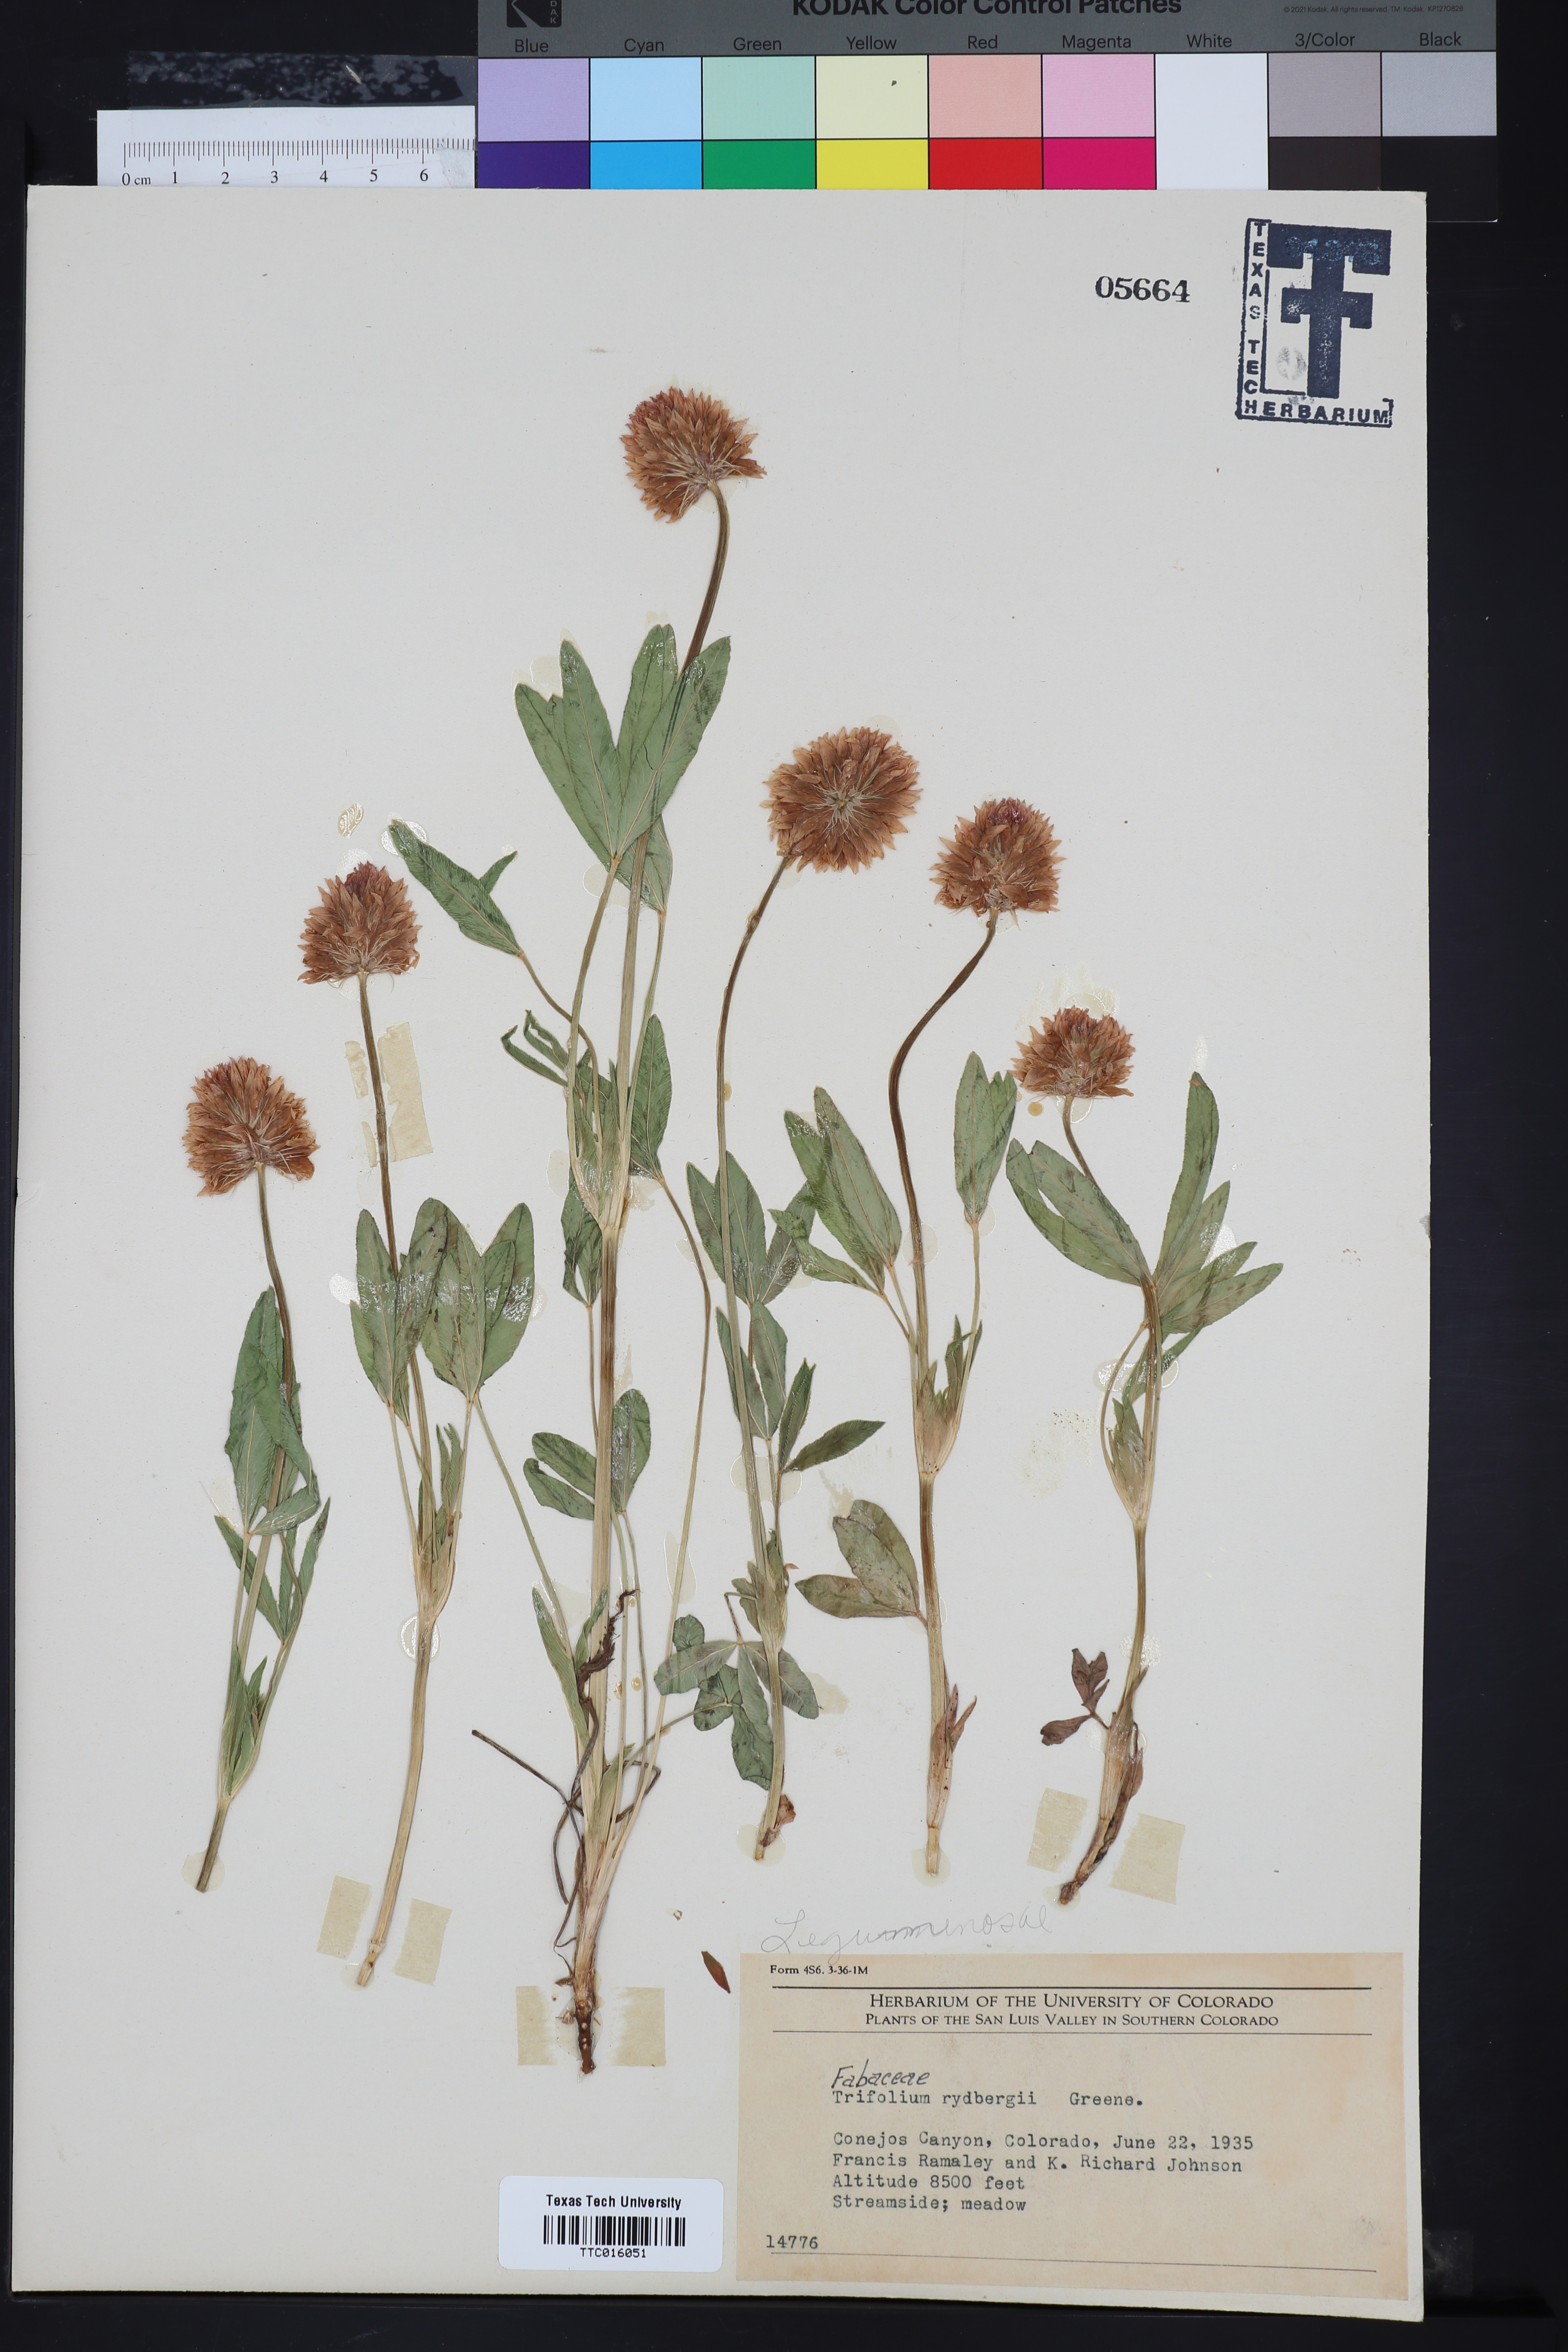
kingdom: Plantae
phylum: Tracheophyta
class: Magnoliopsida
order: Fabales
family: Fabaceae
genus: Trifolium
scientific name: Trifolium longipes
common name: Long-stalk clover
